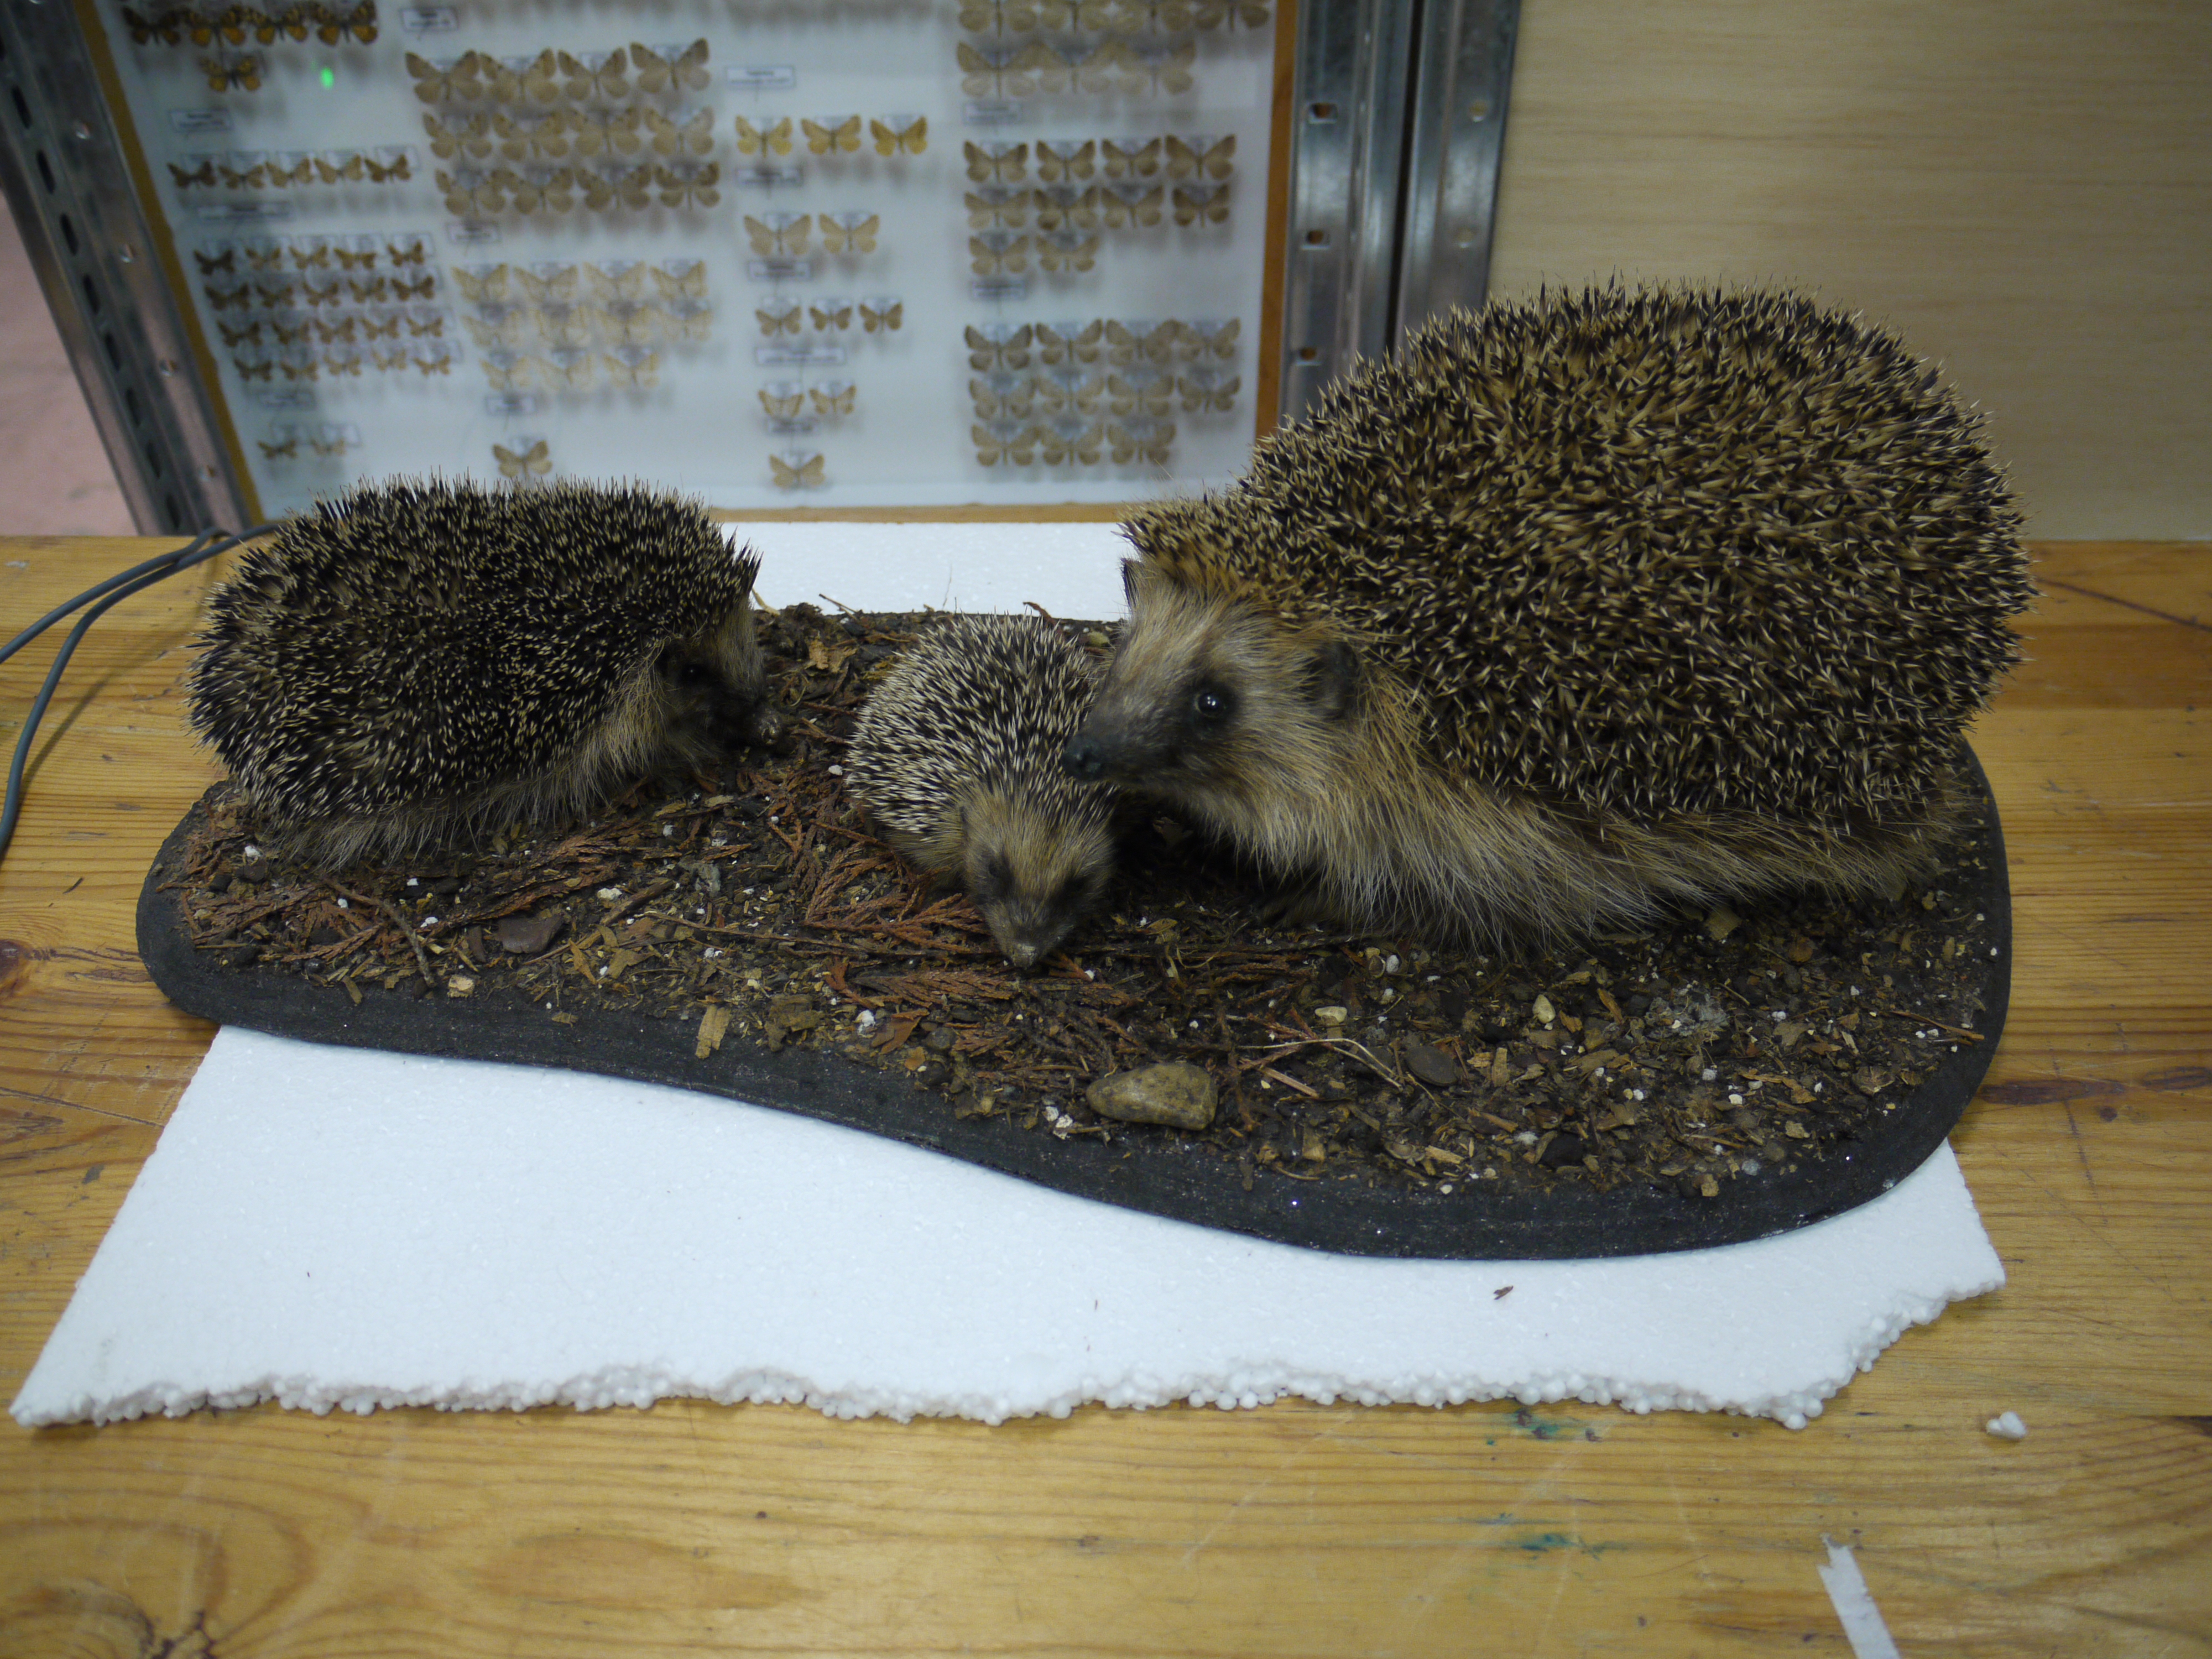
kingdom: Animalia
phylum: Chordata
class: Mammalia
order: Erinaceomorpha
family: Erinaceidae
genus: Erinaceus
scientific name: Erinaceus europaeus
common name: West european hedgehog
